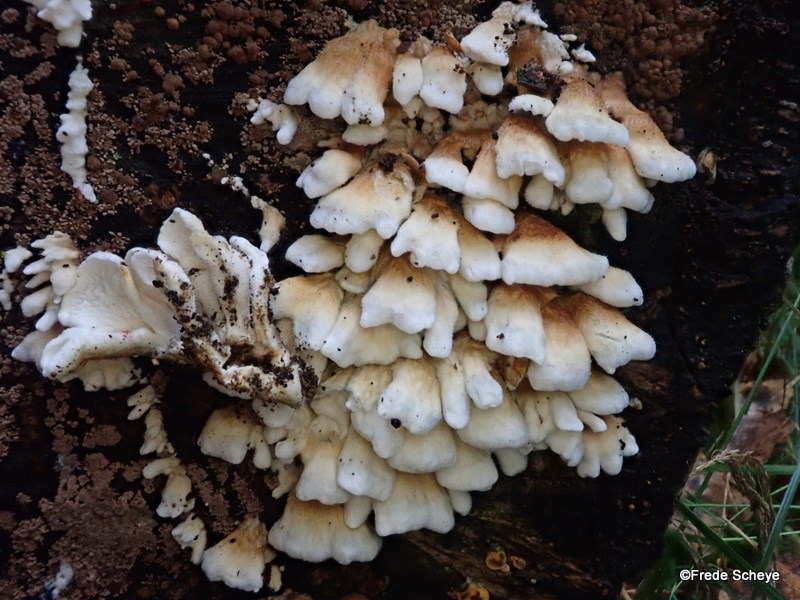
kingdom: Fungi
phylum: Basidiomycota
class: Agaricomycetes
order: Amylocorticiales
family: Amylocorticiaceae
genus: Plicaturopsis
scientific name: Plicaturopsis crispa
